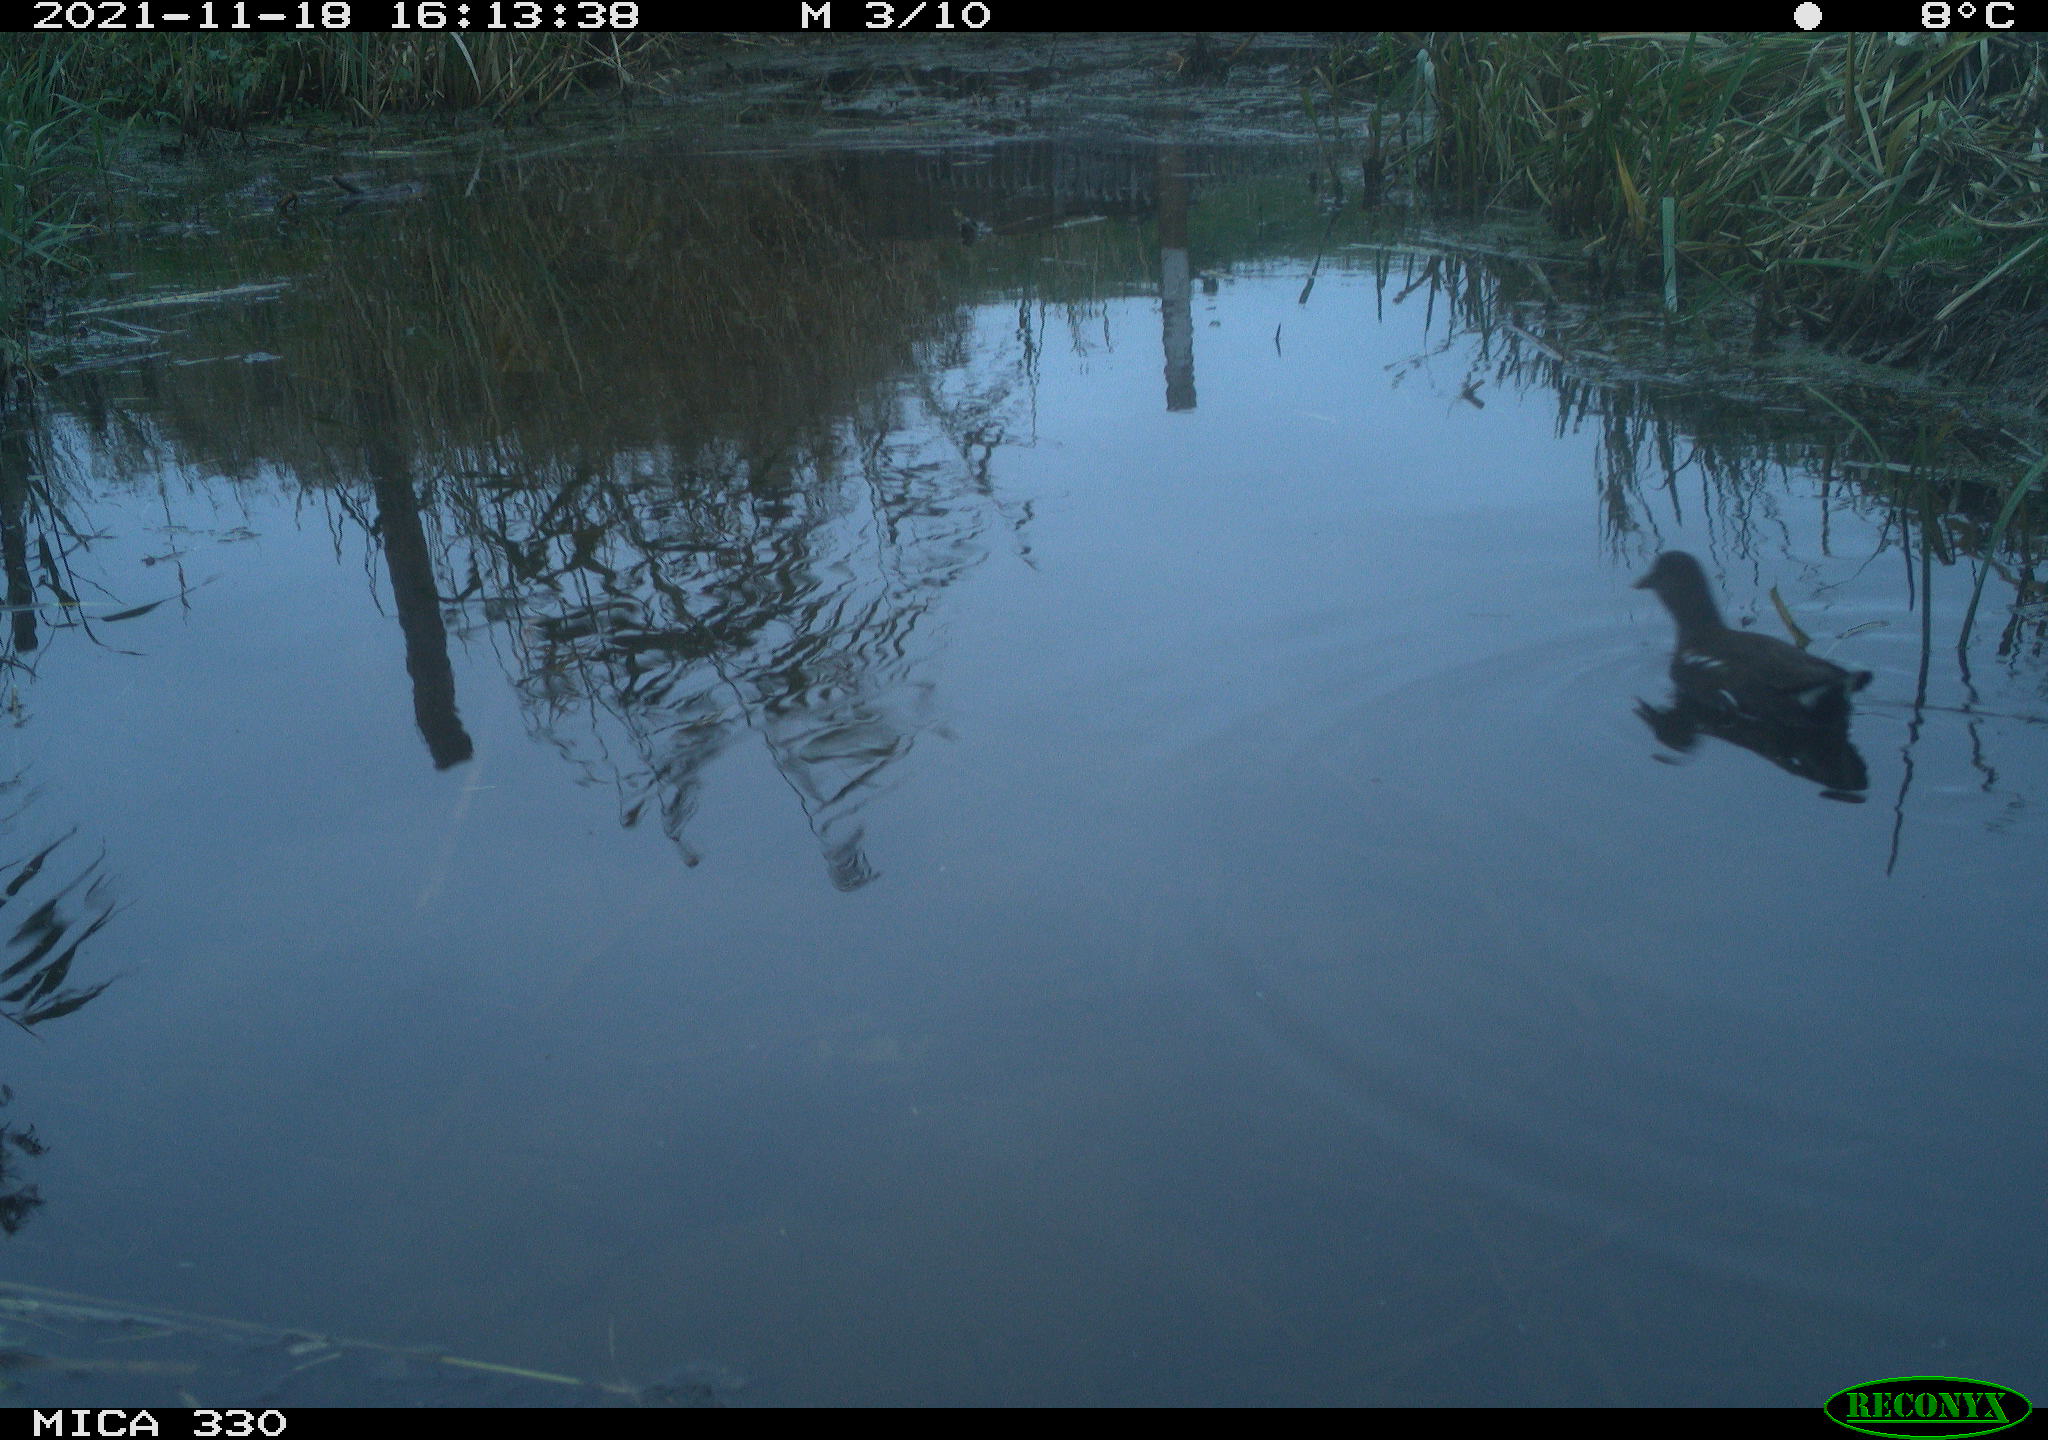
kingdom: Animalia
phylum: Chordata
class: Aves
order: Gruiformes
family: Rallidae
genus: Gallinula
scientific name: Gallinula chloropus
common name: Common moorhen
